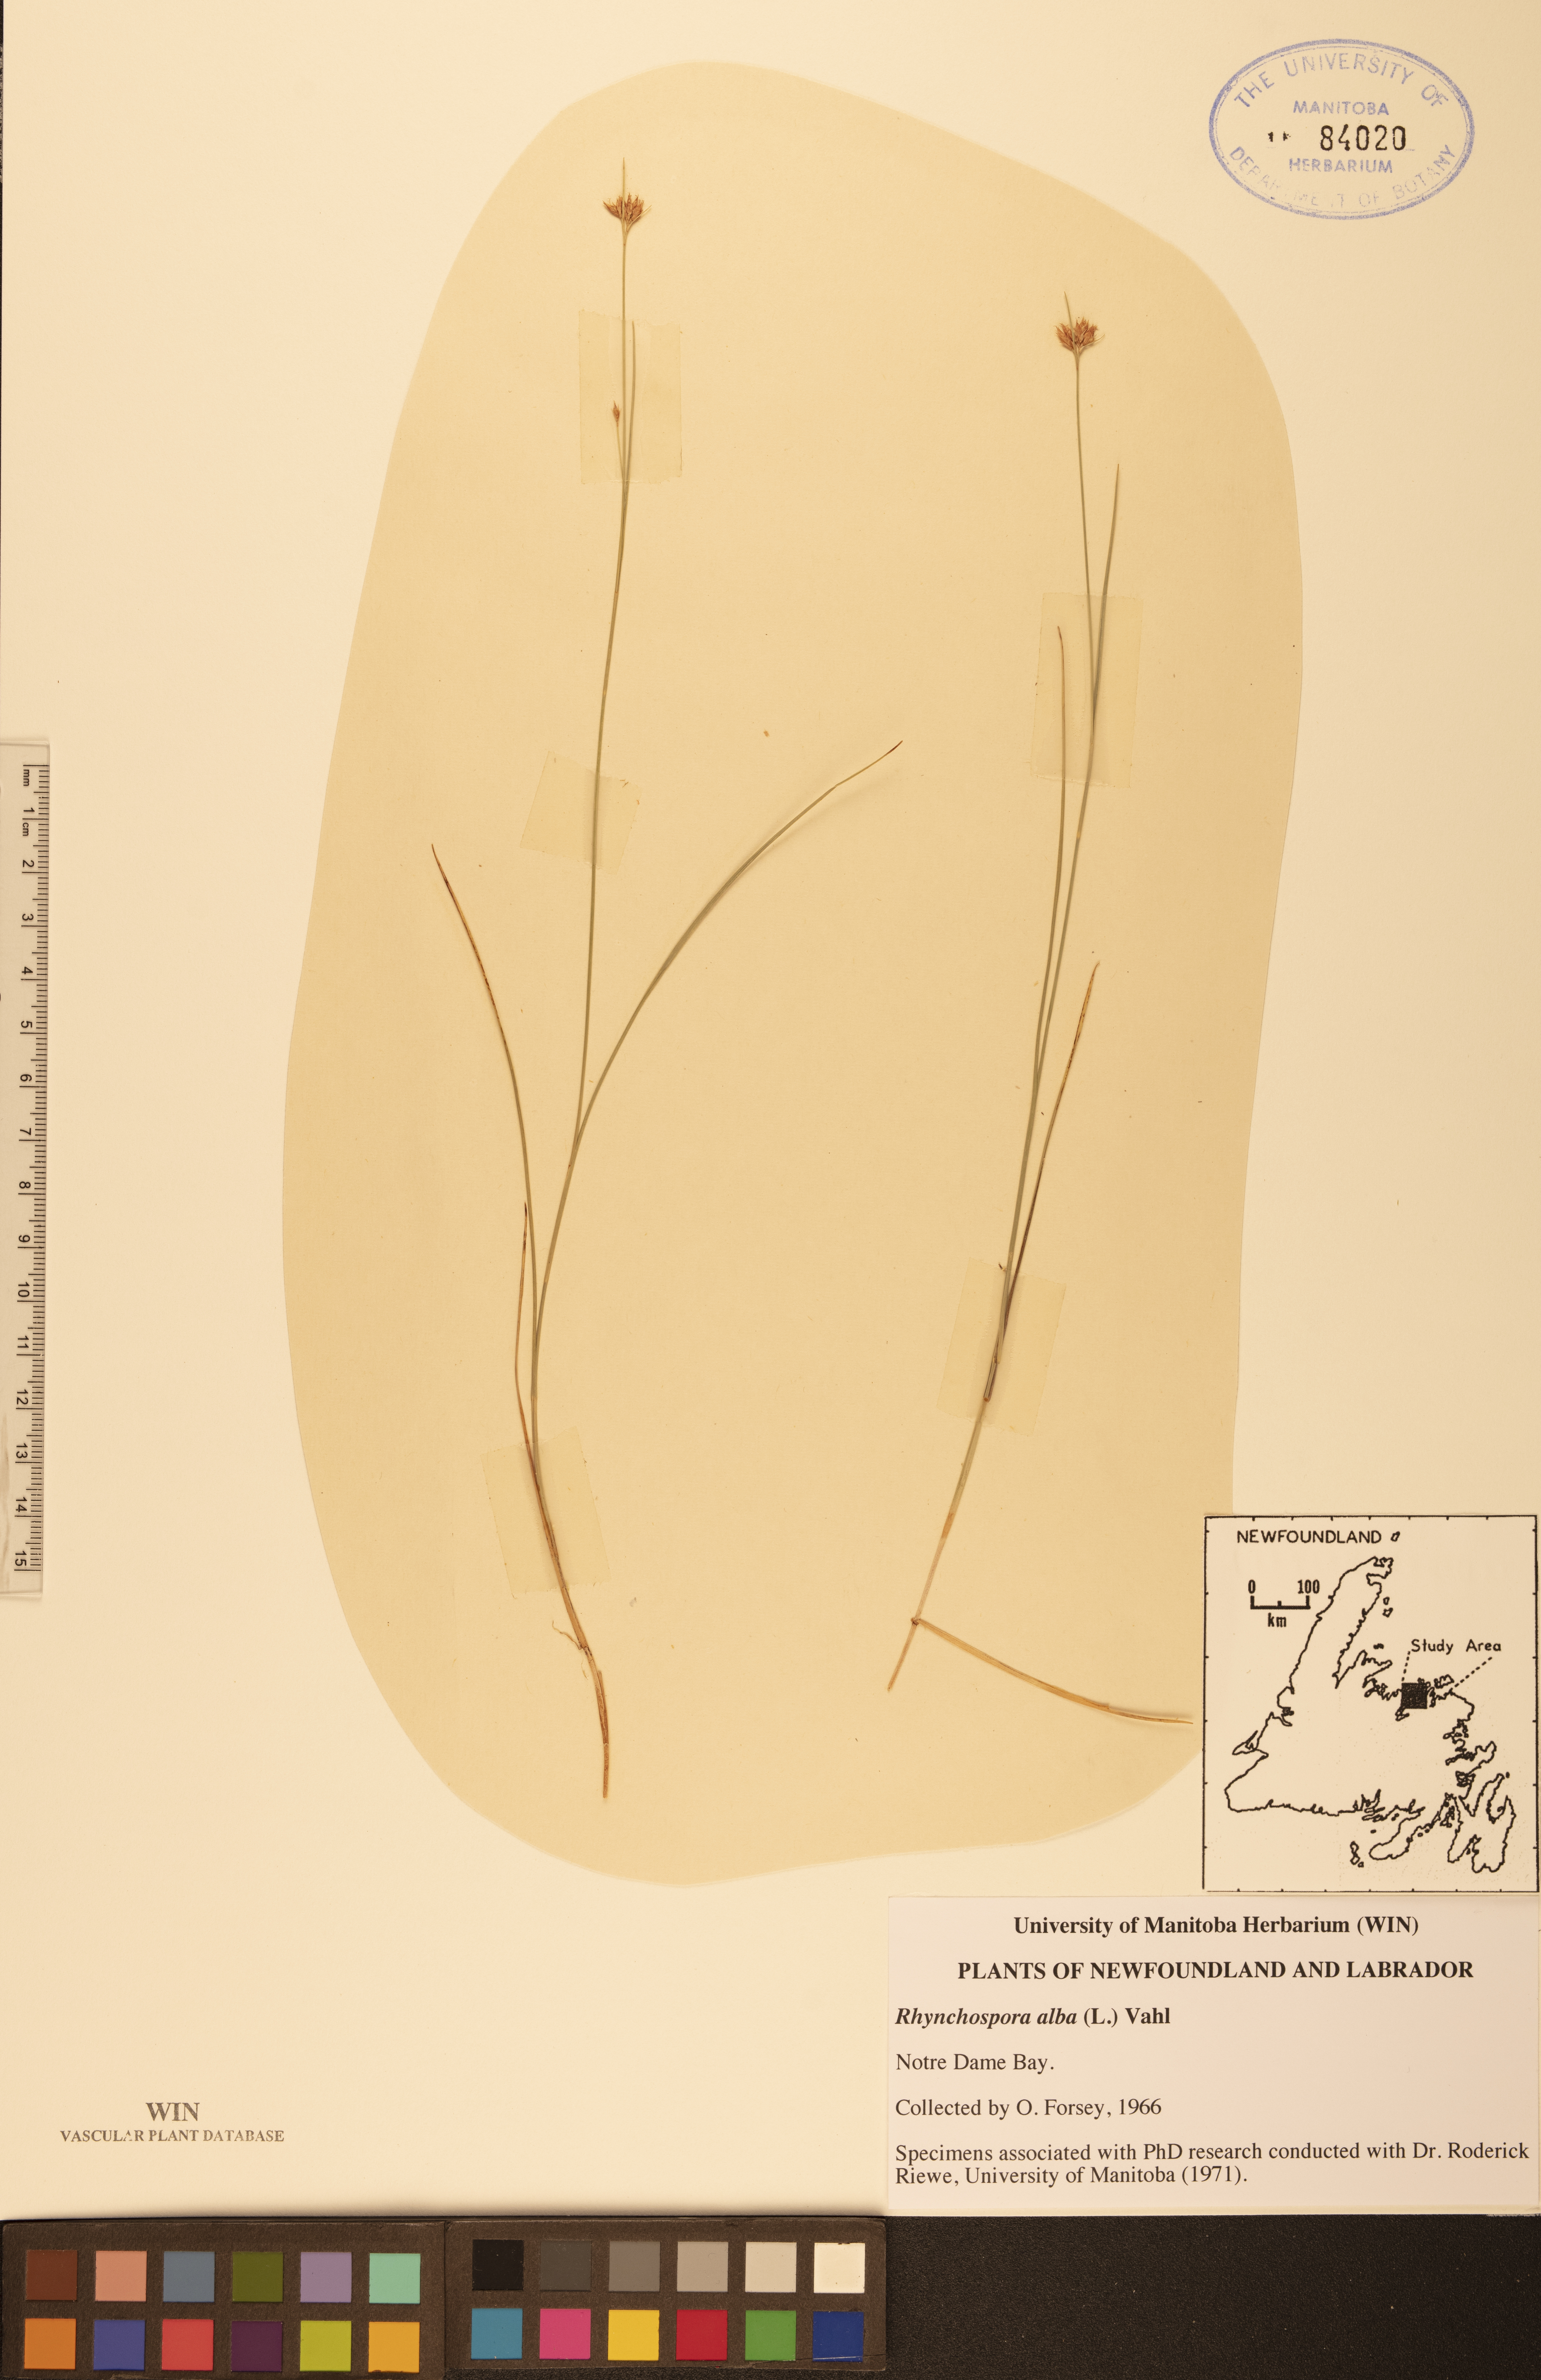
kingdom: Plantae
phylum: Tracheophyta
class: Liliopsida
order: Poales
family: Cyperaceae
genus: Rhynchospora
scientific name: Rhynchospora alba
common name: White beak-sedge
